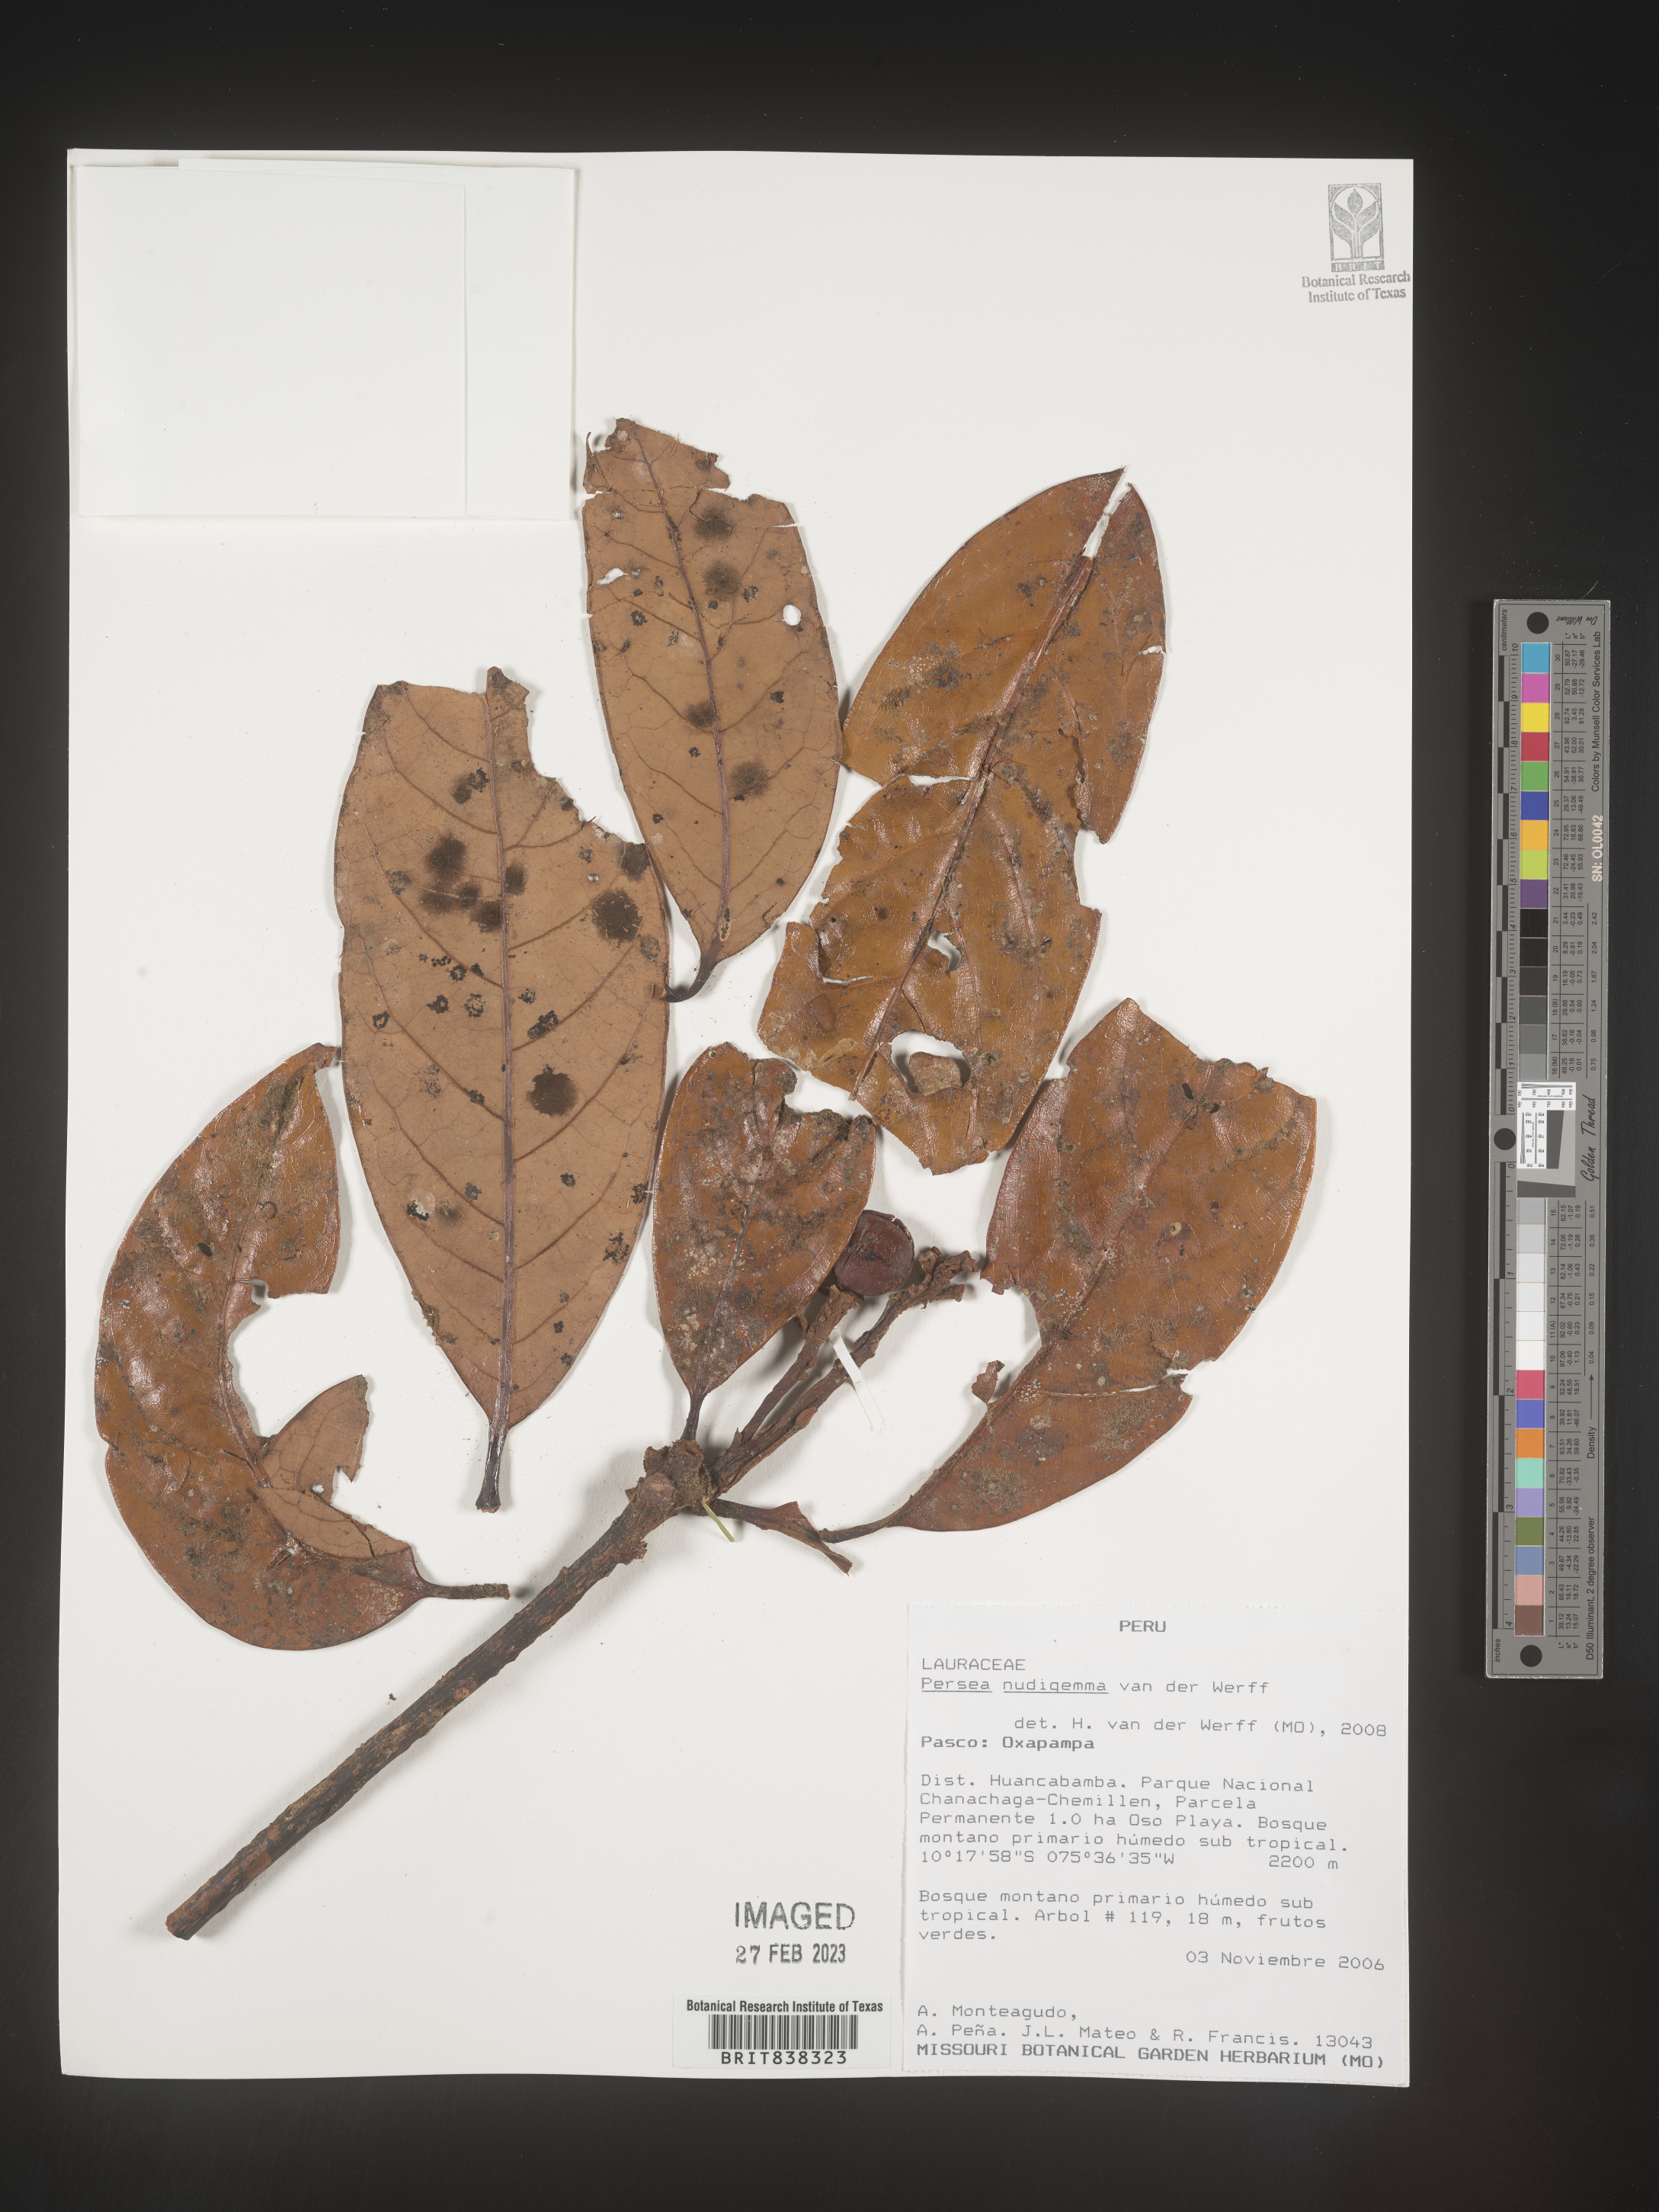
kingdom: Plantae
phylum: Tracheophyta
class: Magnoliopsida
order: Laurales
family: Lauraceae
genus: Persea
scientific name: Persea nudigemma
